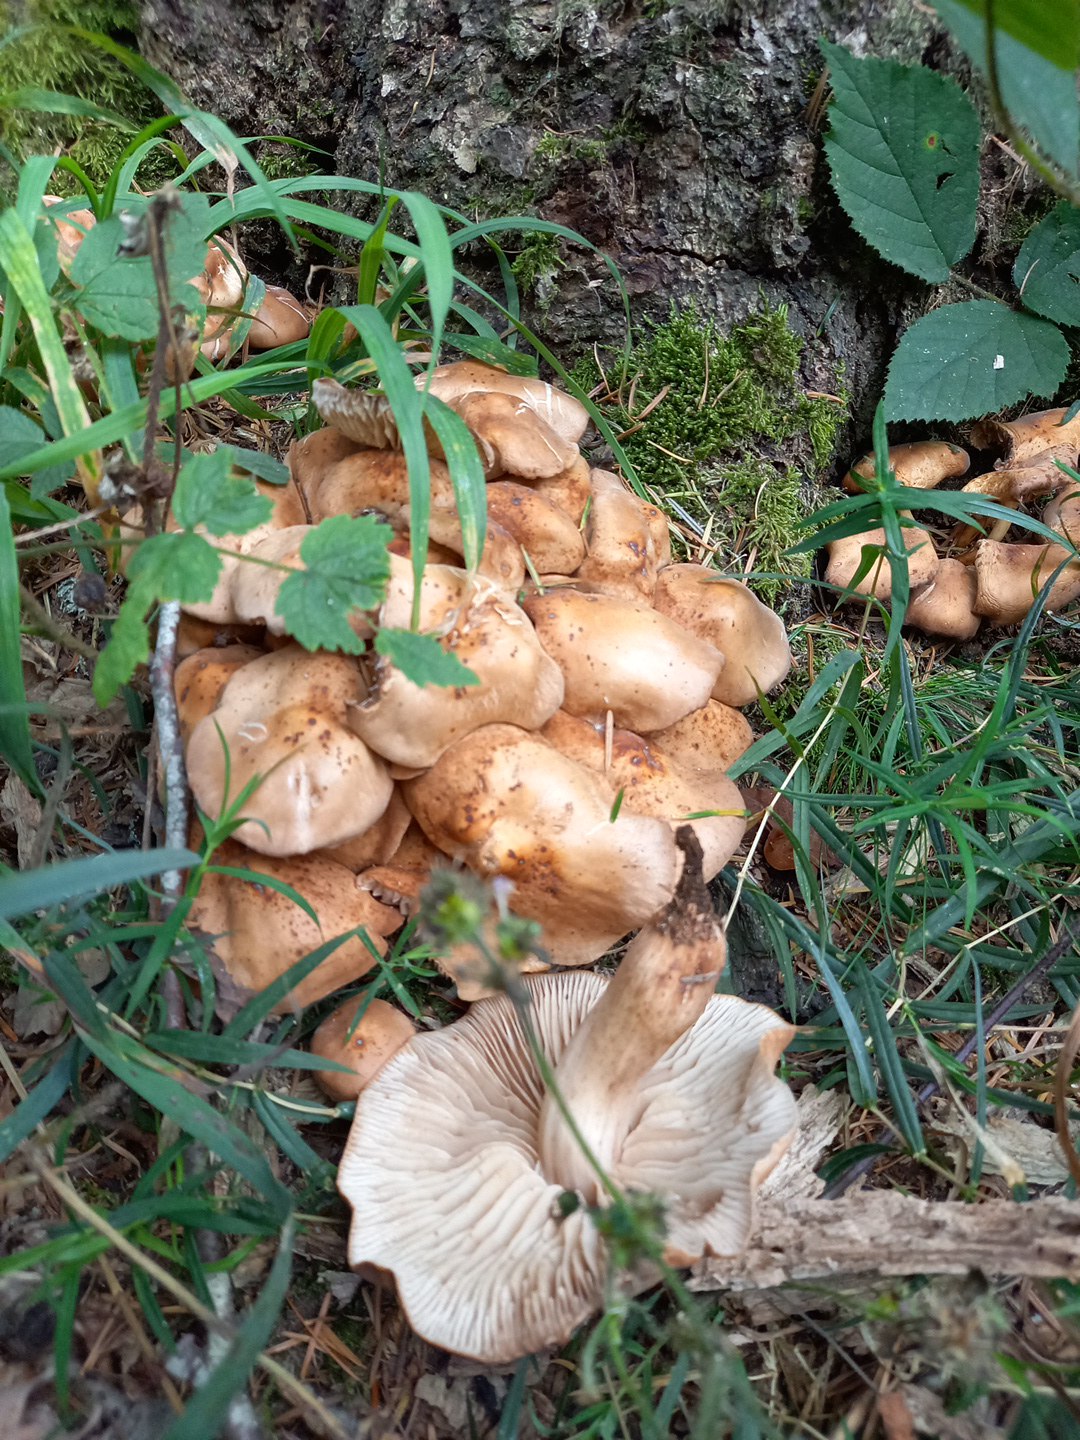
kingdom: Fungi
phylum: Basidiomycota
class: Agaricomycetes
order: Agaricales
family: Omphalotaceae
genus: Gymnopus
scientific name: Gymnopus fusipes
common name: tenstokket fladhat
